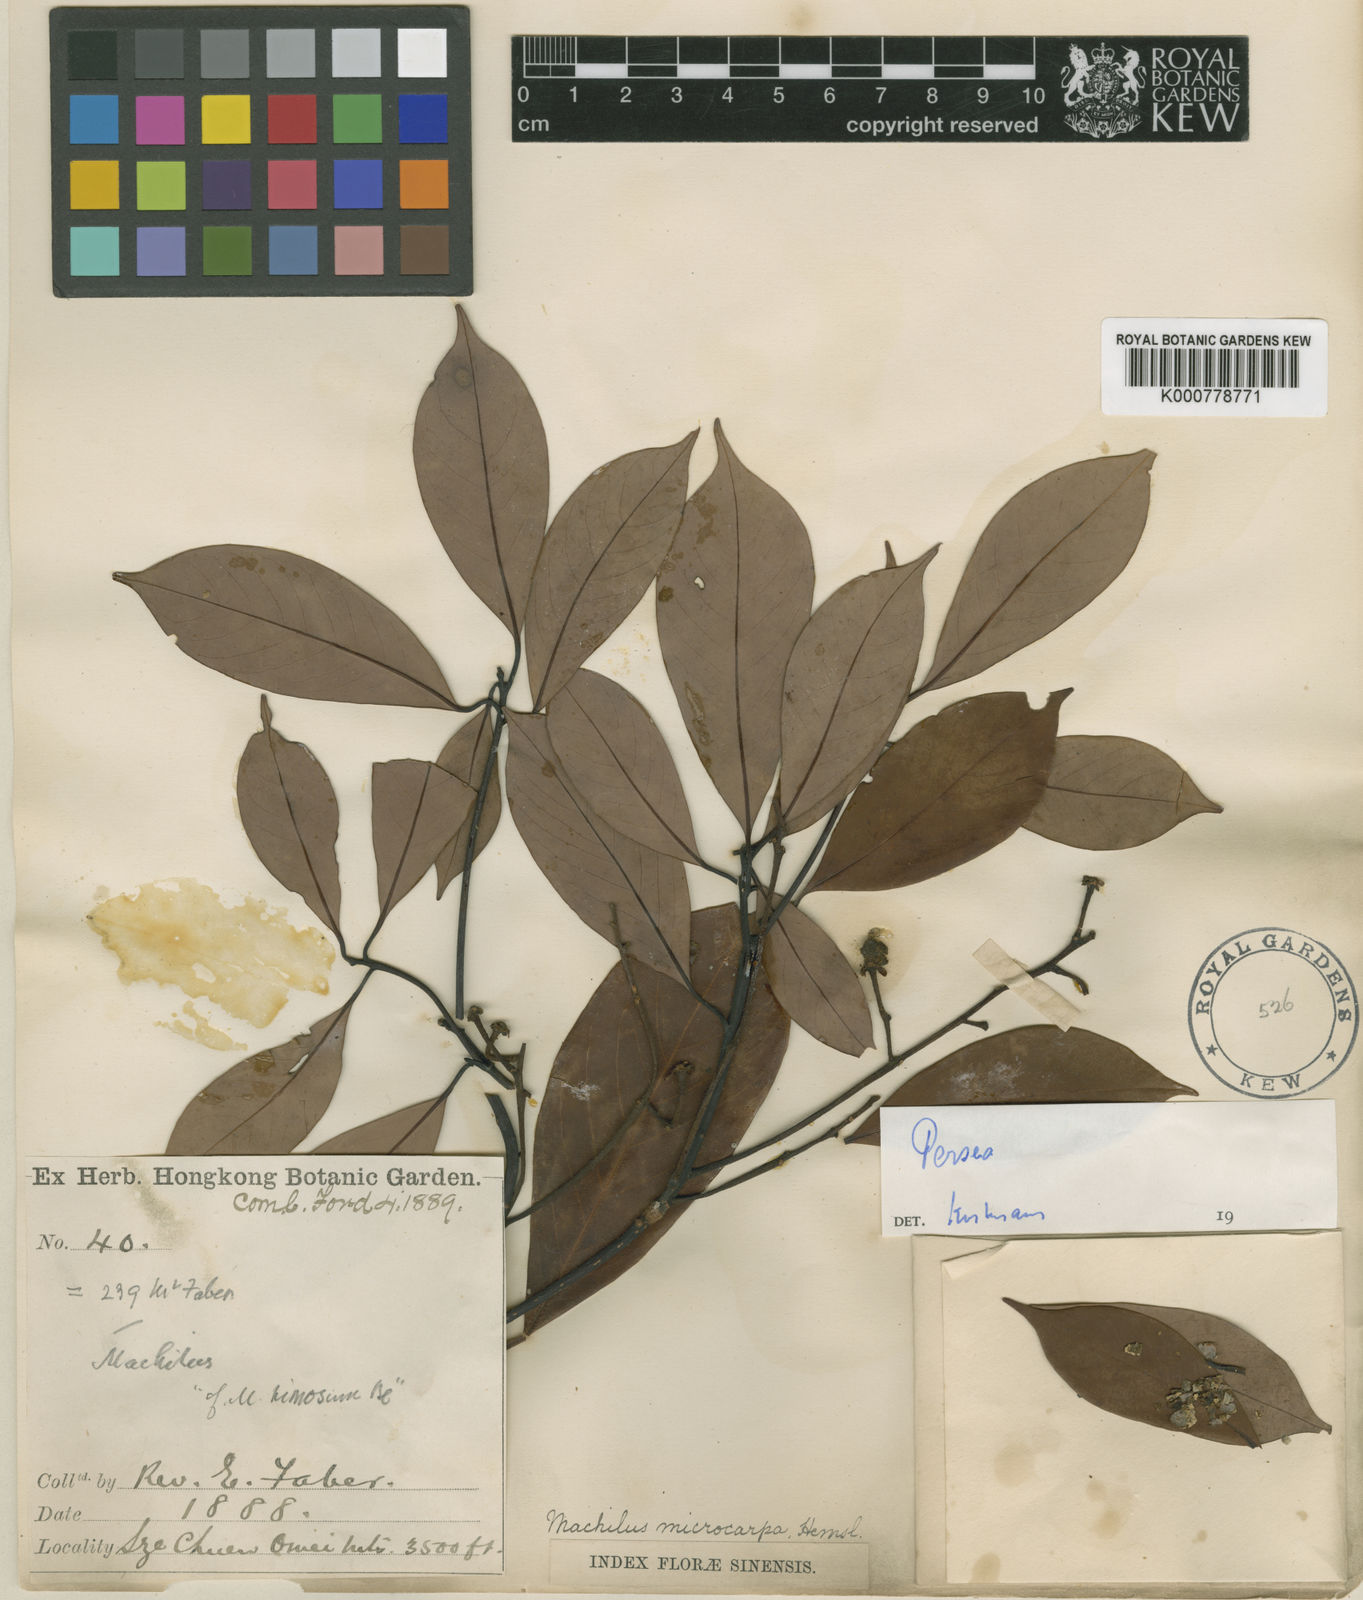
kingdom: Plantae
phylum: Tracheophyta
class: Magnoliopsida
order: Laurales
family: Lauraceae
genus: Machilus
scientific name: Machilus microcarpa
